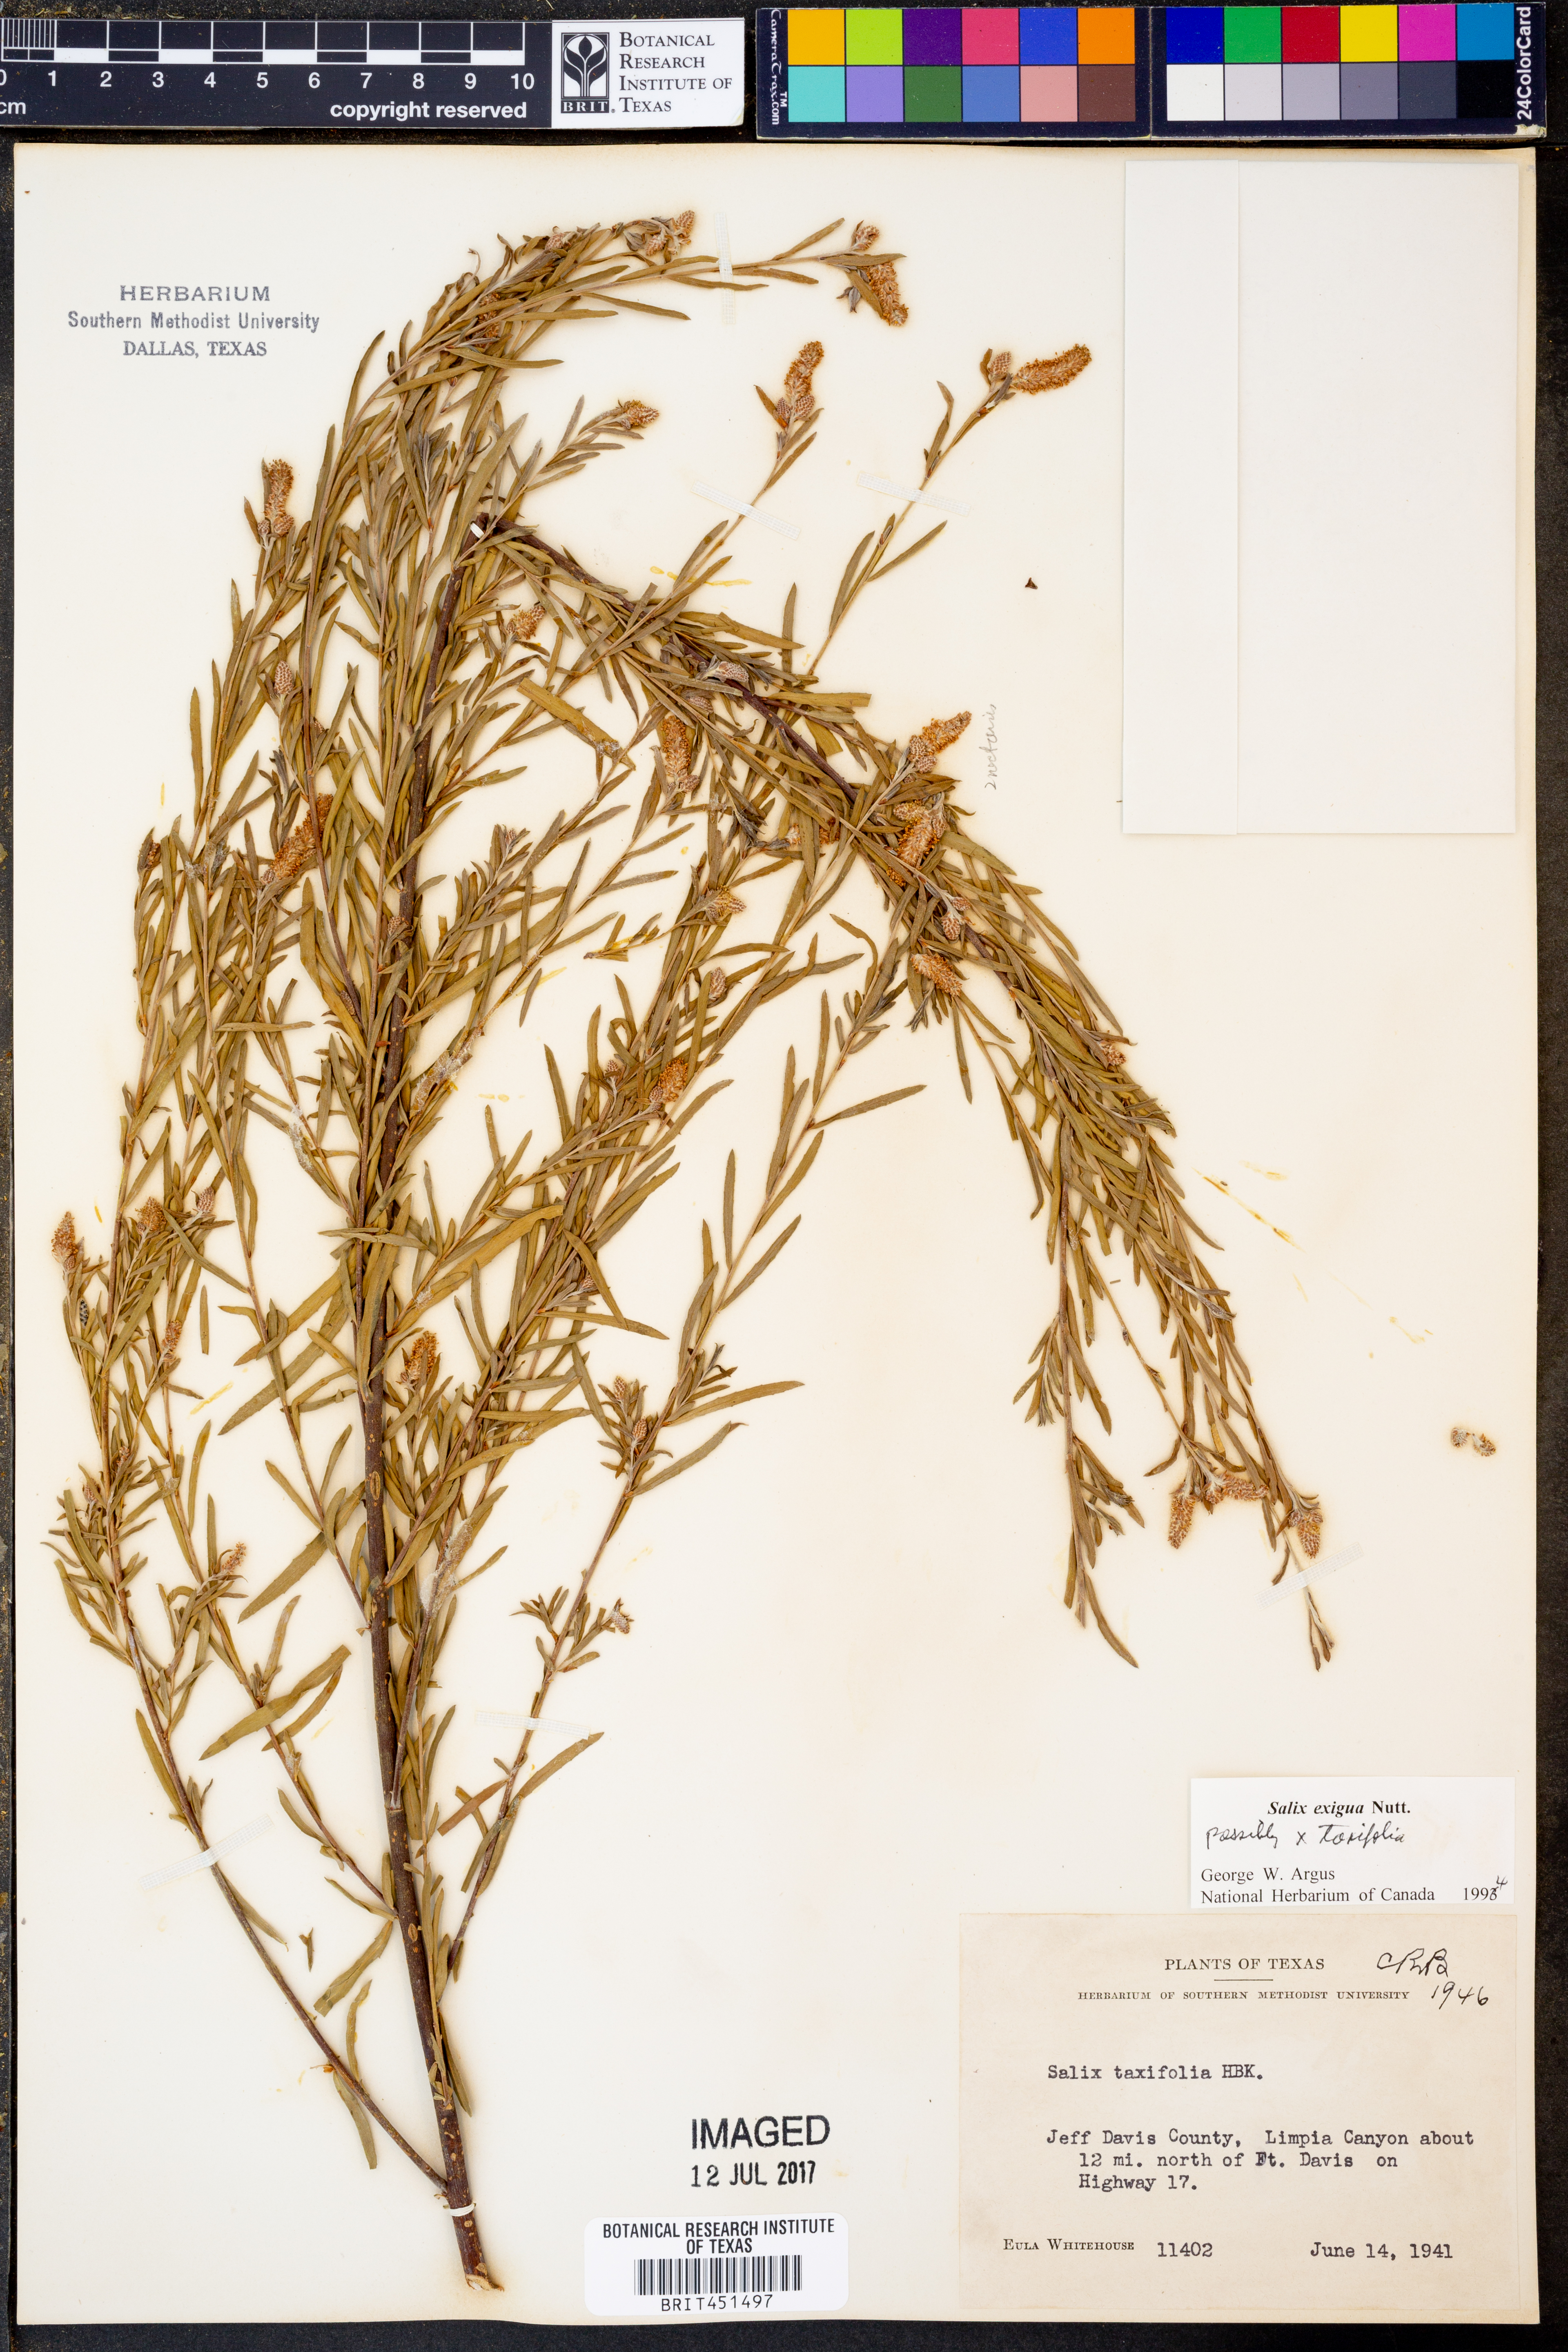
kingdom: Plantae
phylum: Tracheophyta
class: Magnoliopsida
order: Malpighiales
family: Salicaceae
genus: Salix
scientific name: Salix exigua
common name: Coyote willow
